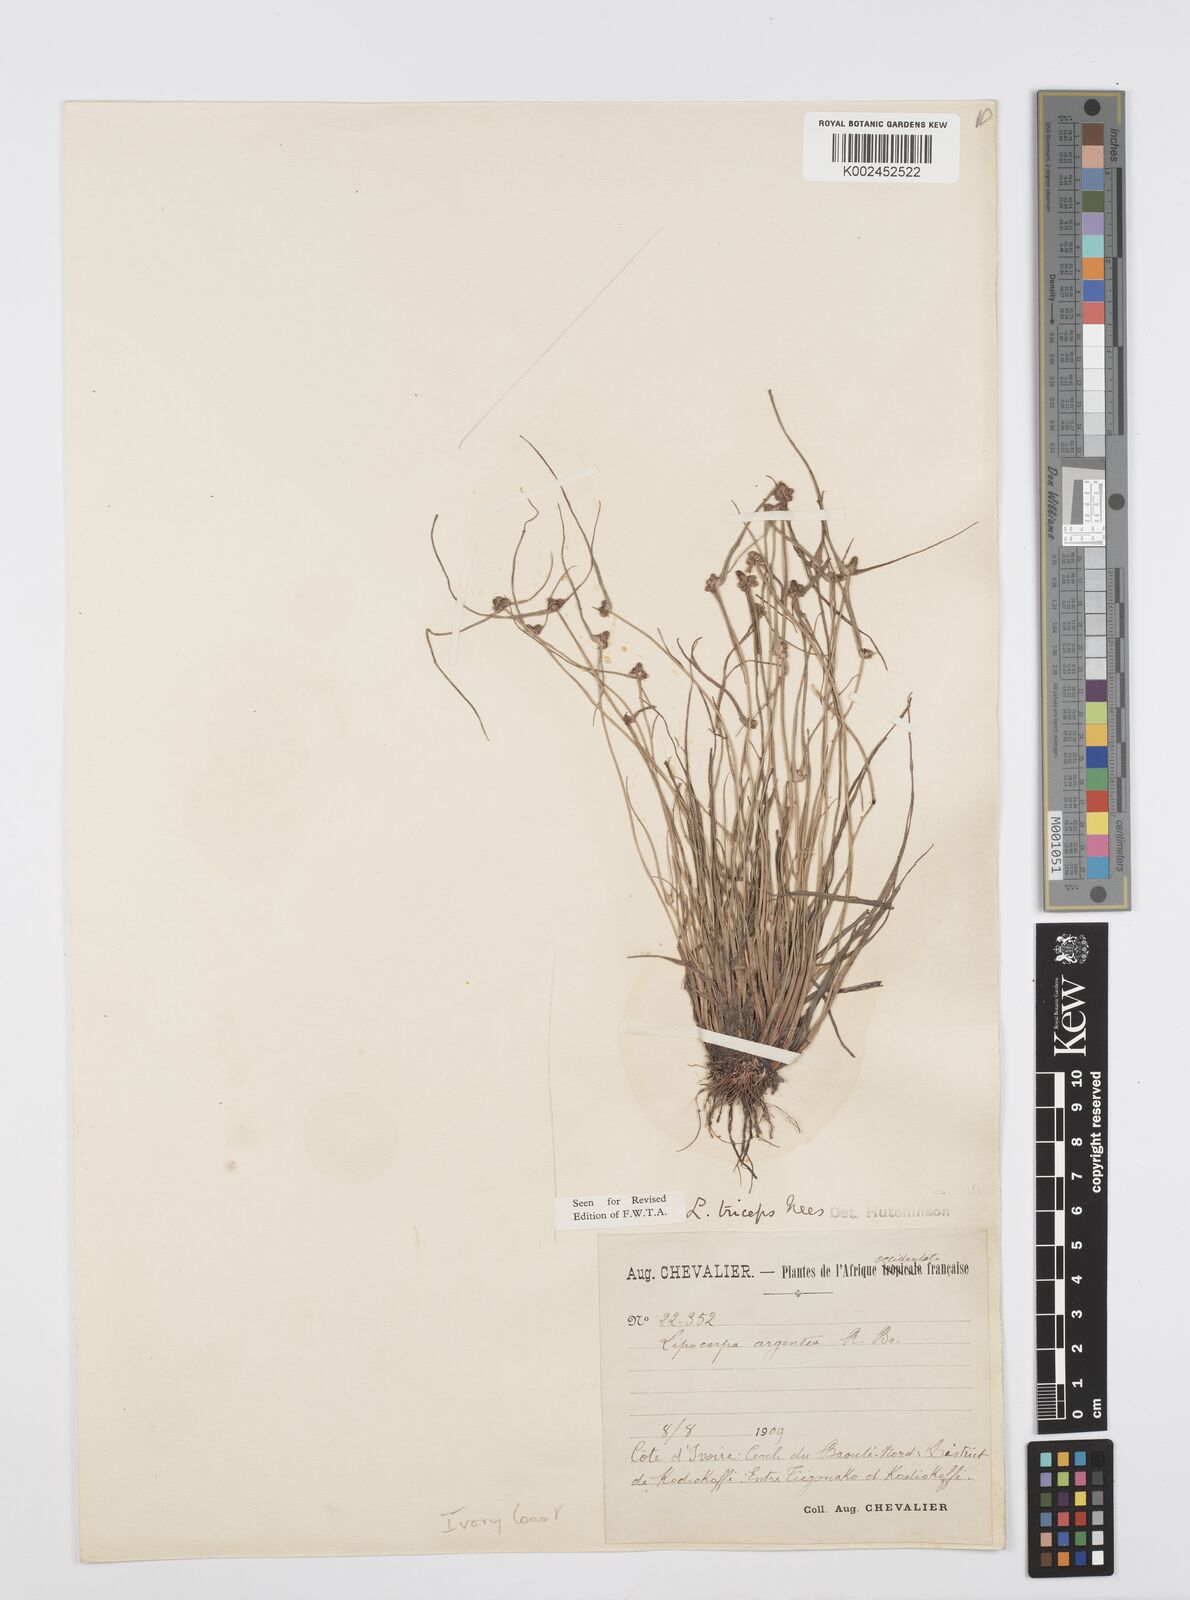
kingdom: Plantae
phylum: Tracheophyta
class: Liliopsida
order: Poales
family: Cyperaceae
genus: Cyperus
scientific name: Cyperus filiformis
